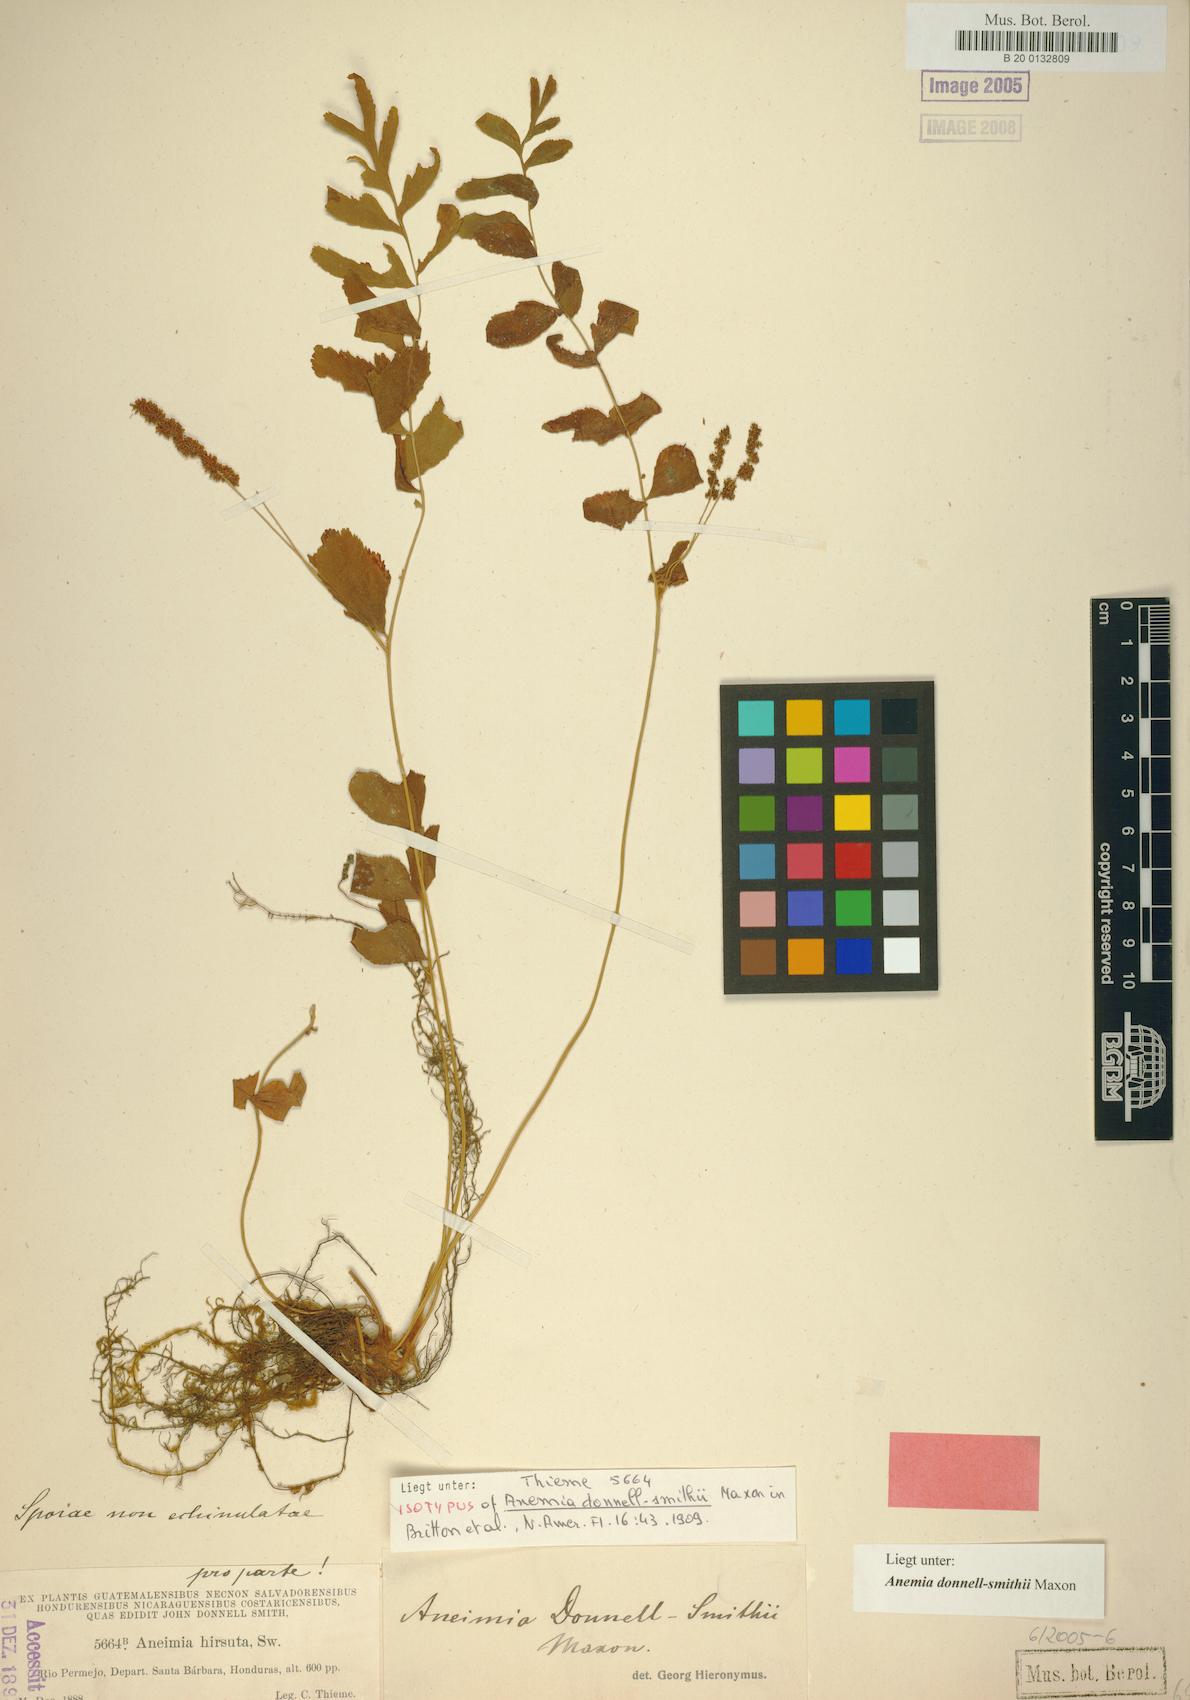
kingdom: Plantae
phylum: Tracheophyta
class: Polypodiopsida
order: Schizaeales
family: Anemiaceae
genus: Anemia
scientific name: Anemia donnell-smithii
